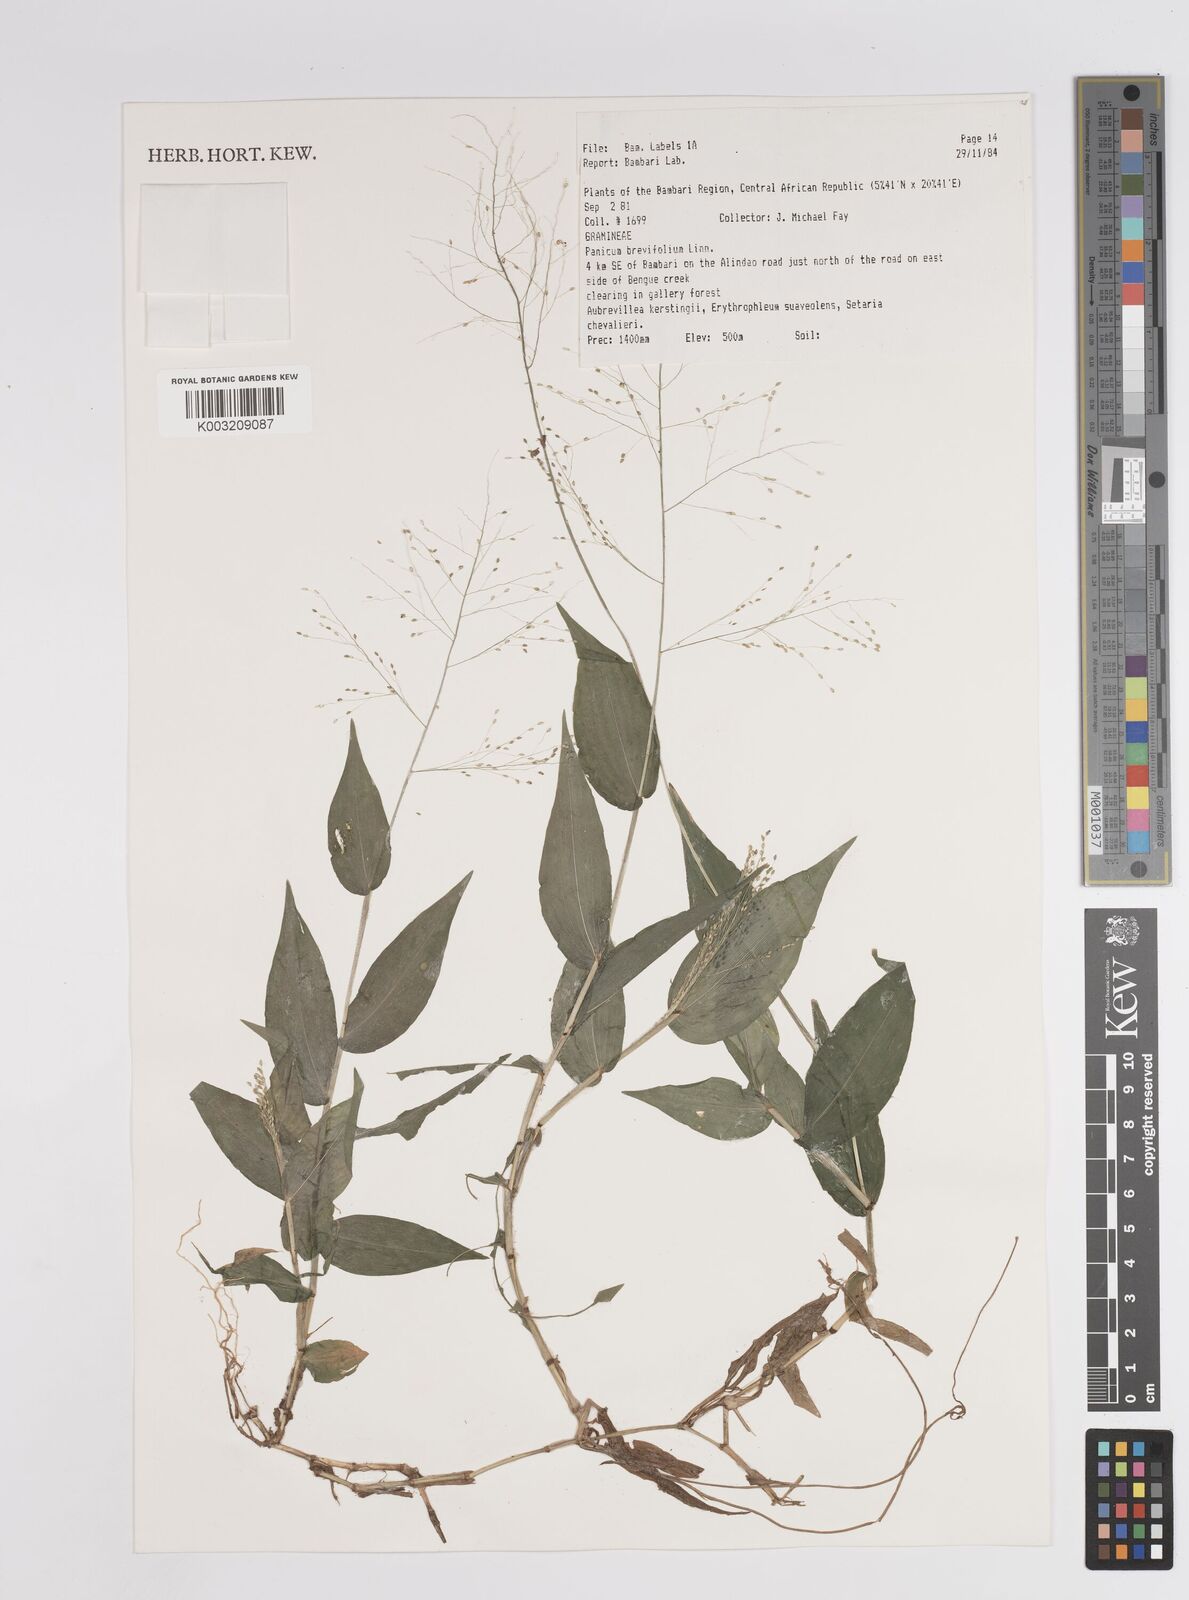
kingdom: Plantae
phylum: Tracheophyta
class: Liliopsida
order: Poales
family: Poaceae
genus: Panicum
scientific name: Panicum brevifolium
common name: Shortleaf panic grass
